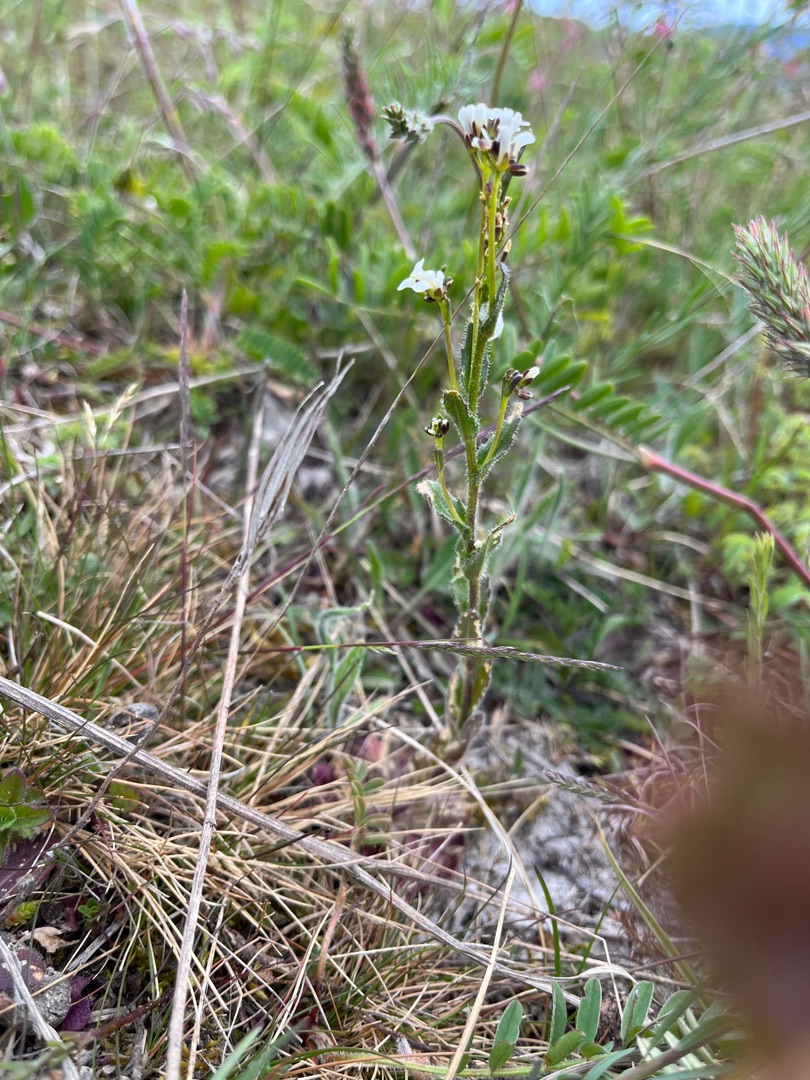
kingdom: Plantae
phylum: Tracheophyta
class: Magnoliopsida
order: Brassicales
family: Brassicaceae
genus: Arabis
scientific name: Arabis hirsuta
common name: Stivhåret kalkkarse
